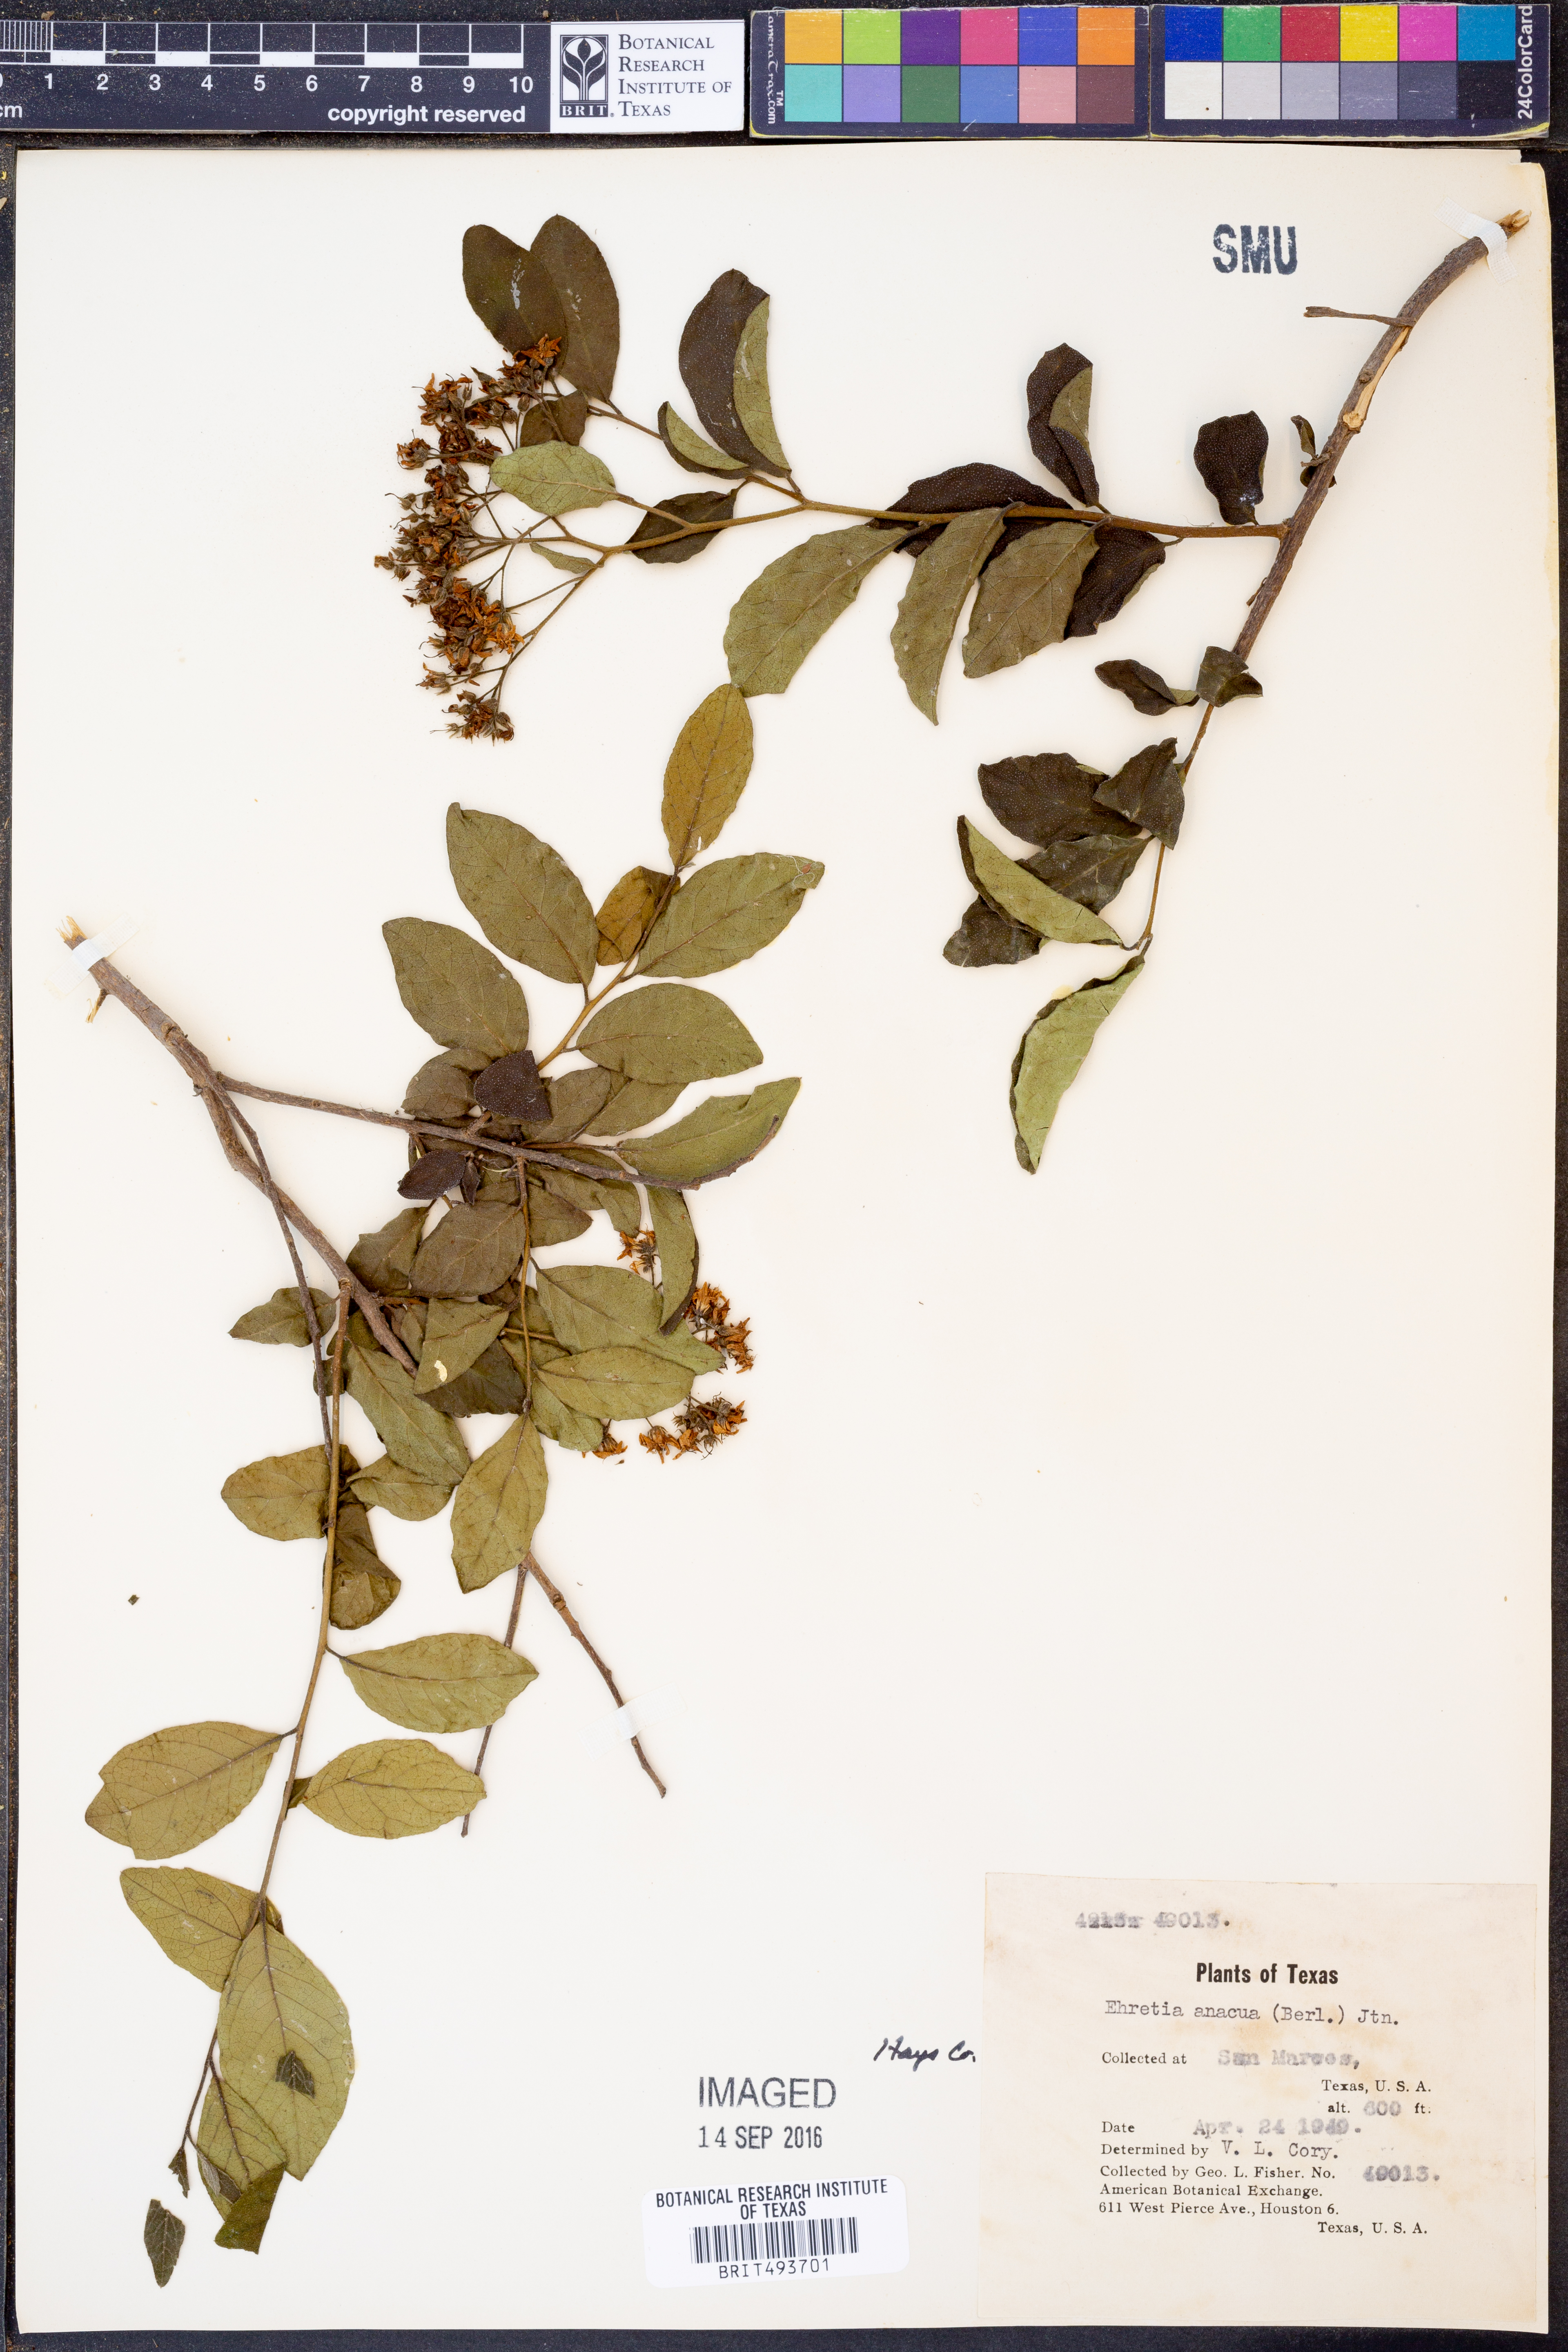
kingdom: Plantae
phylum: Tracheophyta
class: Magnoliopsida
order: Boraginales
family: Ehretiaceae
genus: Ehretia
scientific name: Ehretia anacua
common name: Sugarberry
